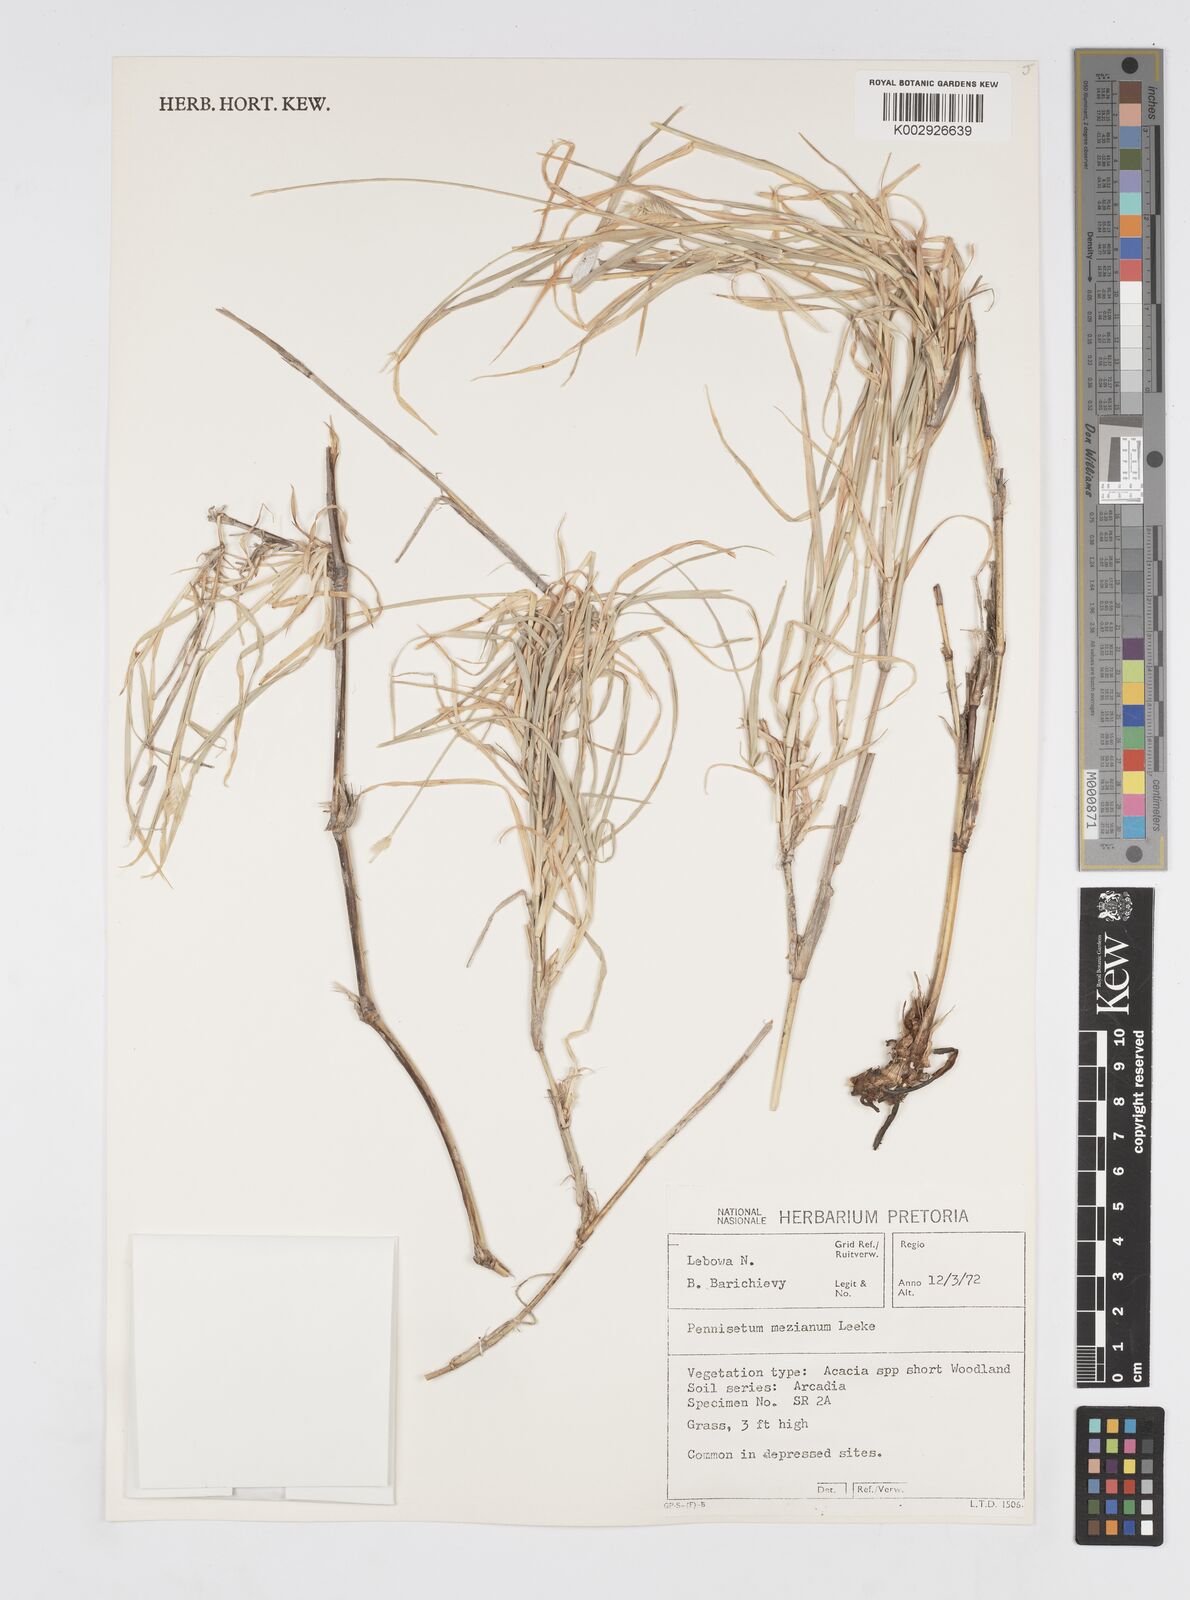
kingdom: Plantae
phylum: Tracheophyta
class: Liliopsida
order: Poales
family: Poaceae
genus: Cenchrus
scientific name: Cenchrus mezianus
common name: Bamboo grass
